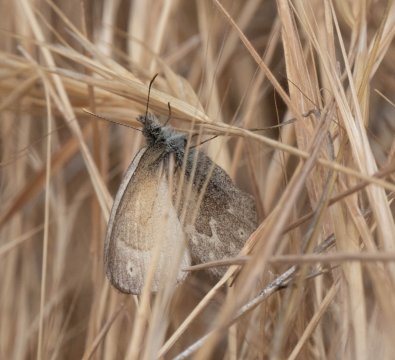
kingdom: Animalia
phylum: Arthropoda
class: Insecta
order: Lepidoptera
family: Nymphalidae
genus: Coenonympha
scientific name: Coenonympha tullia
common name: Large Heath
